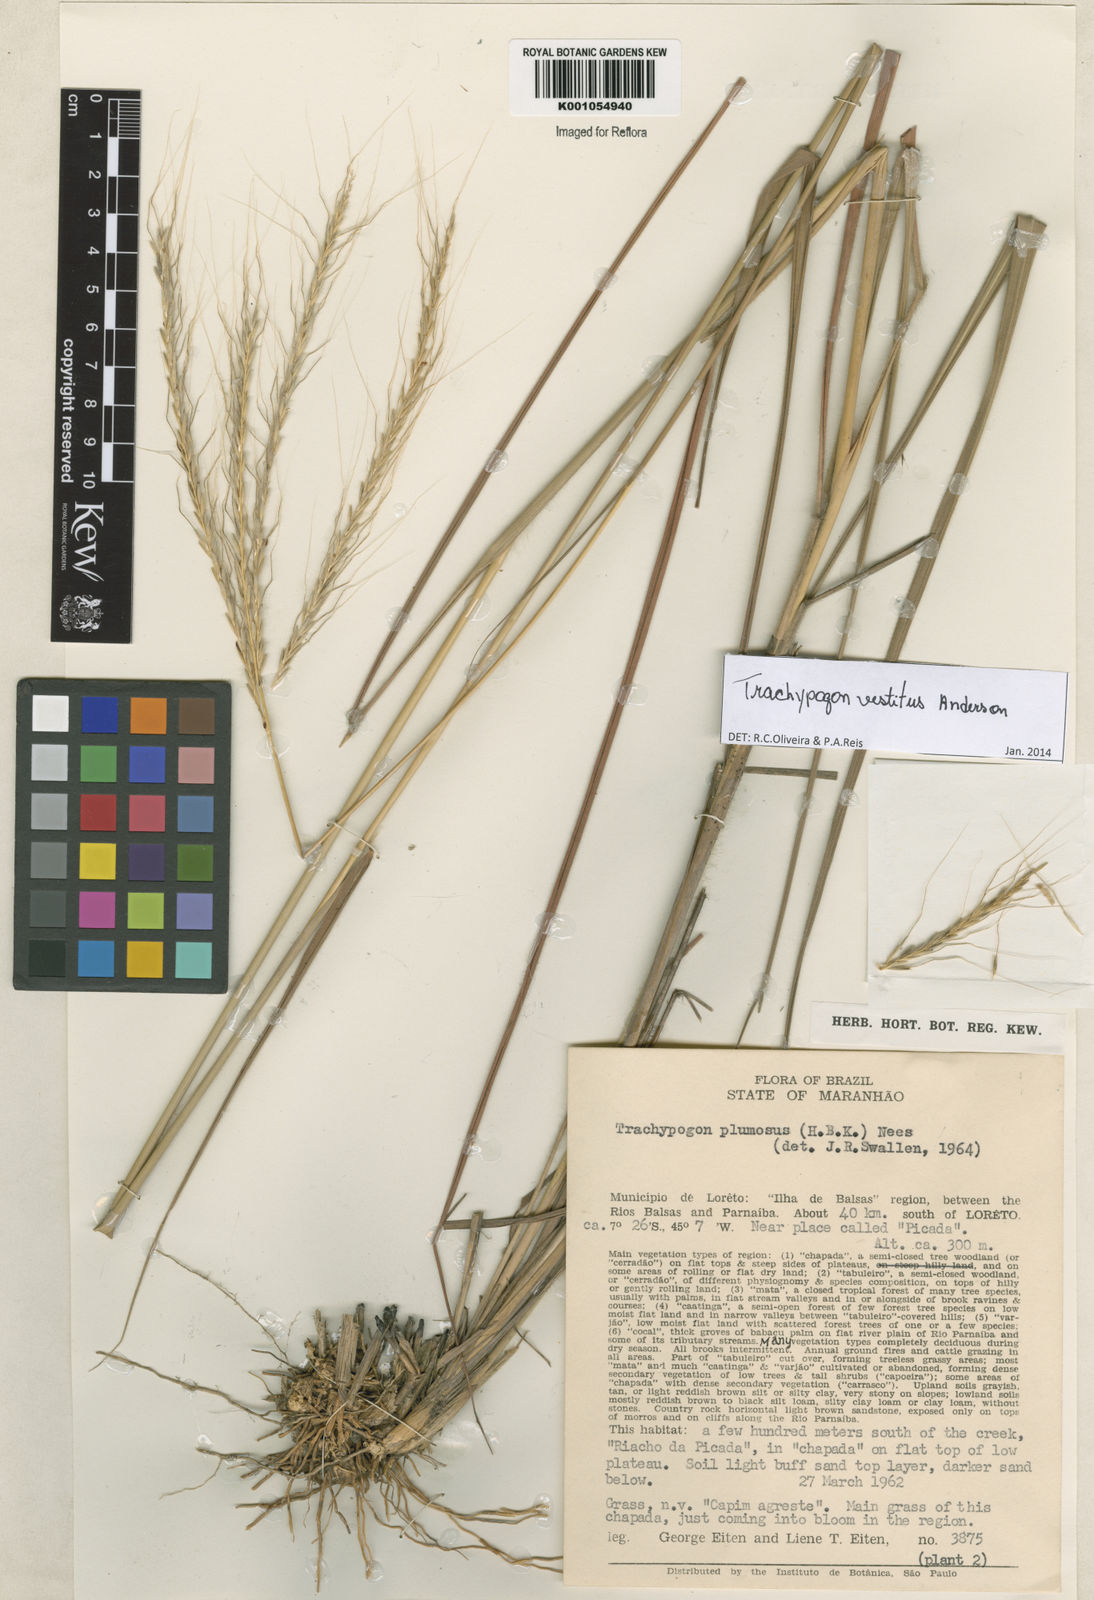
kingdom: Plantae
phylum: Tracheophyta
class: Liliopsida
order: Poales
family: Poaceae
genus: Trachypogon
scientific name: Trachypogon vestitus
